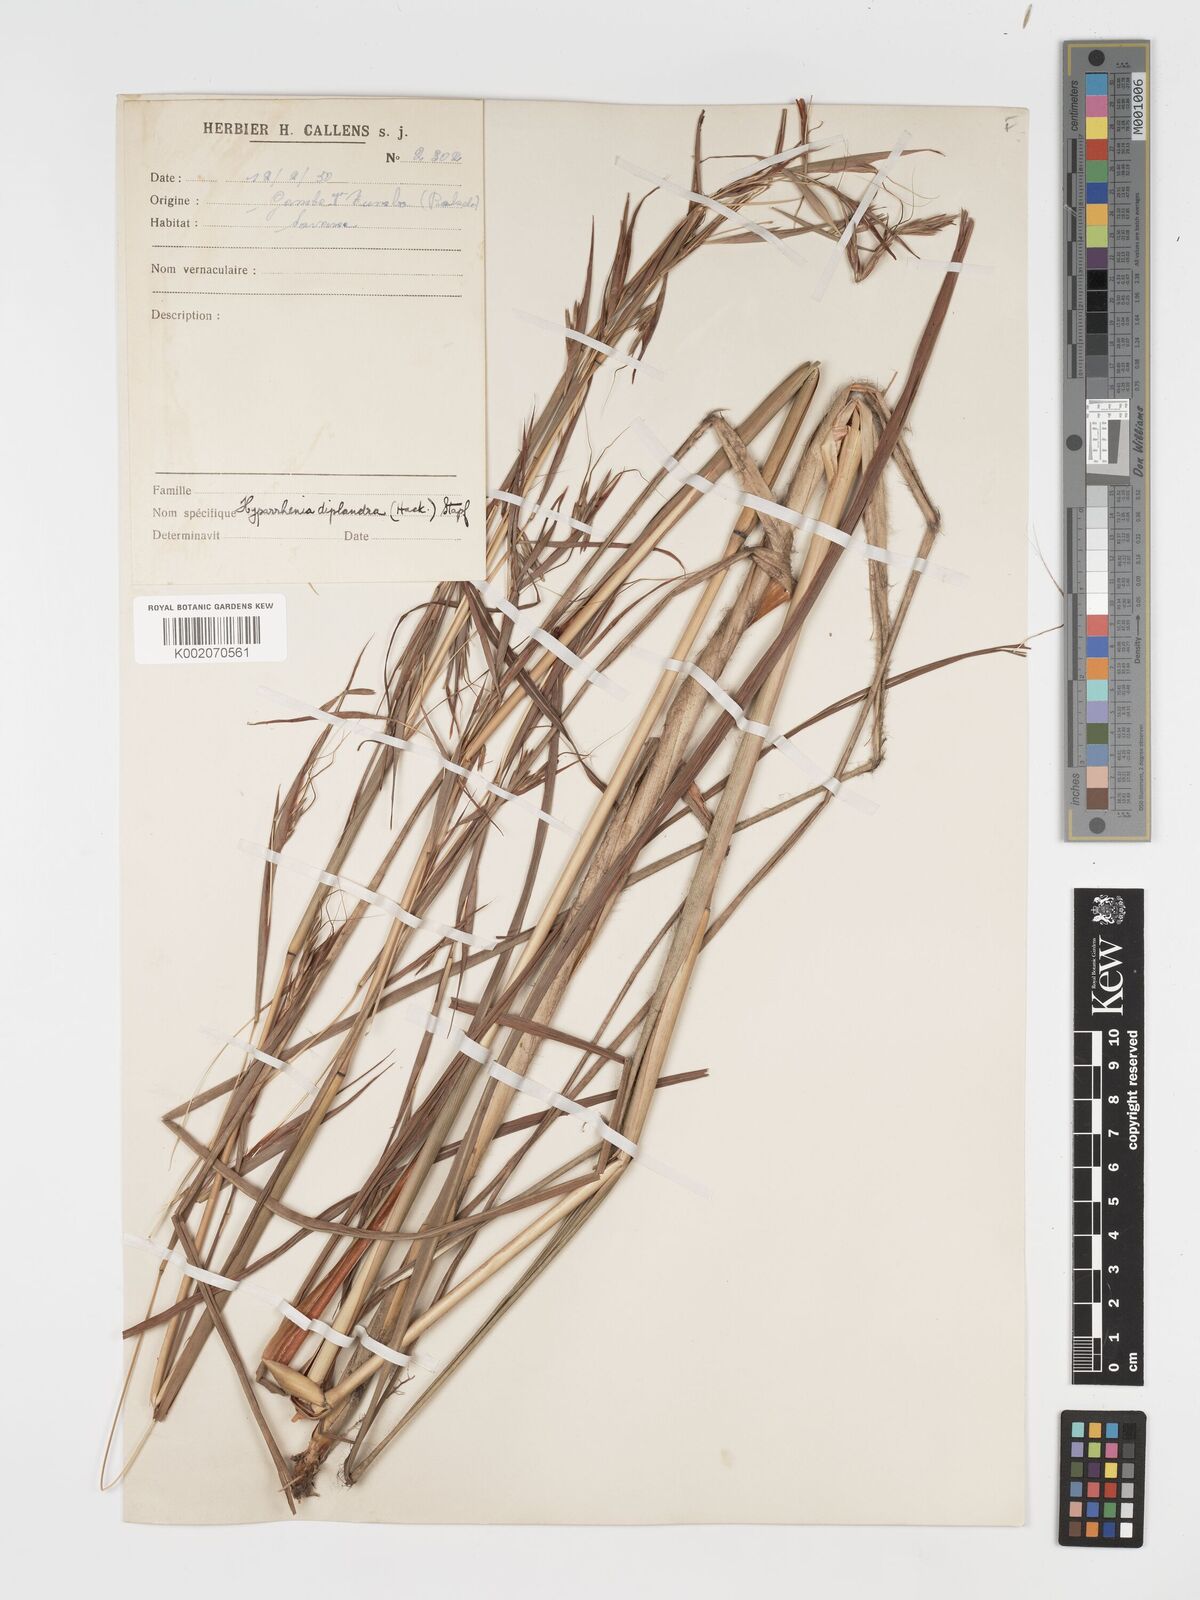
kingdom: Plantae
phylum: Tracheophyta
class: Liliopsida
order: Poales
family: Poaceae
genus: Hyparrhenia
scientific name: Hyparrhenia diplandra
